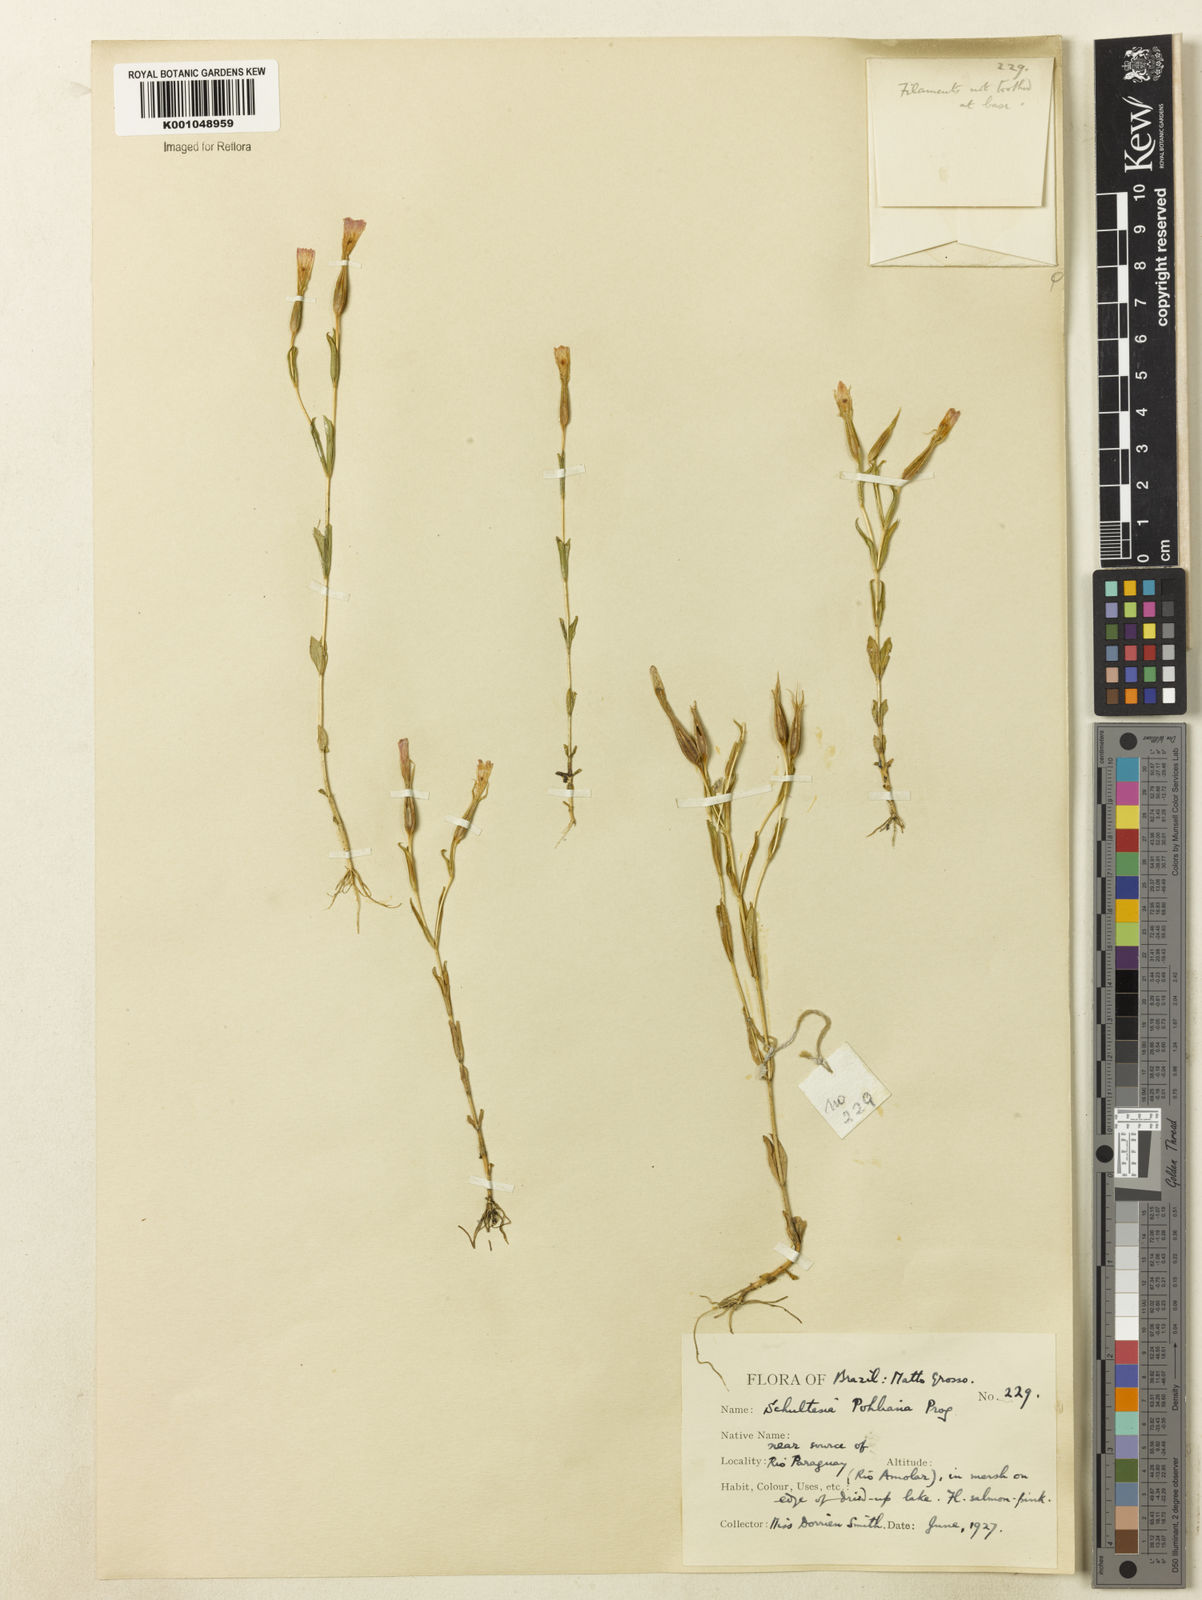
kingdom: Plantae
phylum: Tracheophyta
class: Magnoliopsida
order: Gentianales
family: Gentianaceae
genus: Schultesia
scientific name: Schultesia pohliana
